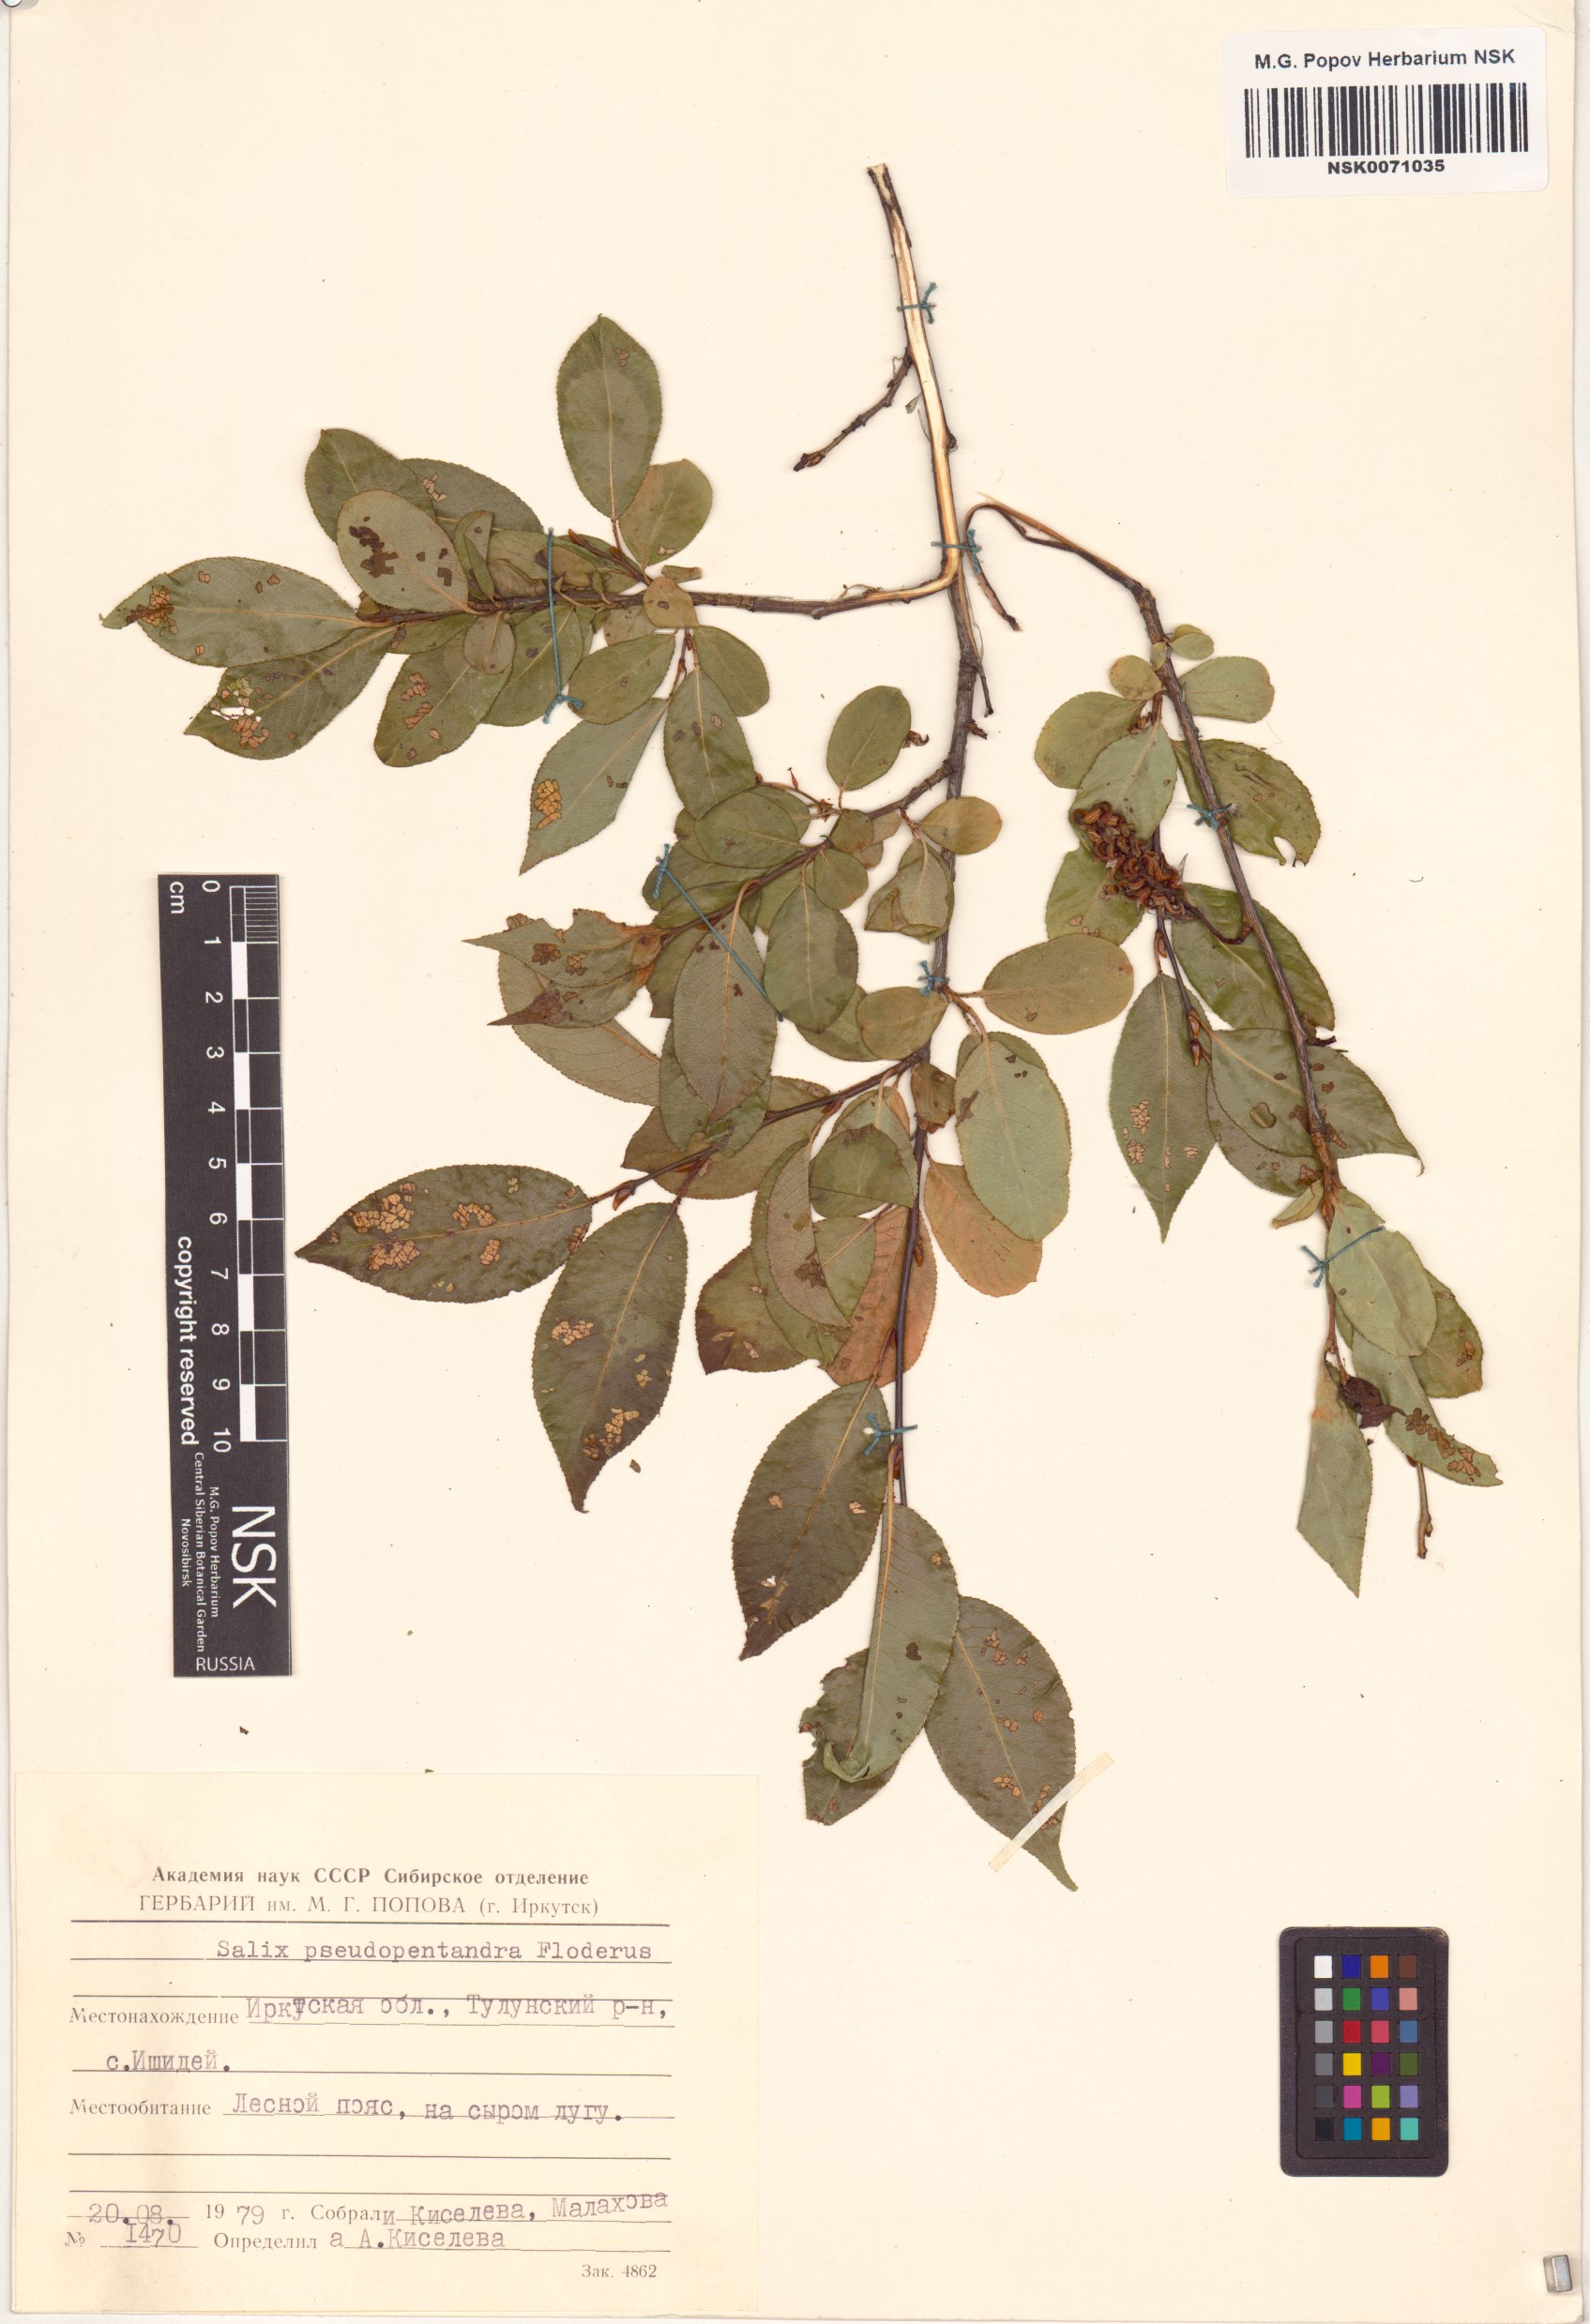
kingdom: Plantae
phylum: Tracheophyta
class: Magnoliopsida
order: Malpighiales
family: Salicaceae
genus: Salix
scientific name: Salix pseudopentandra
